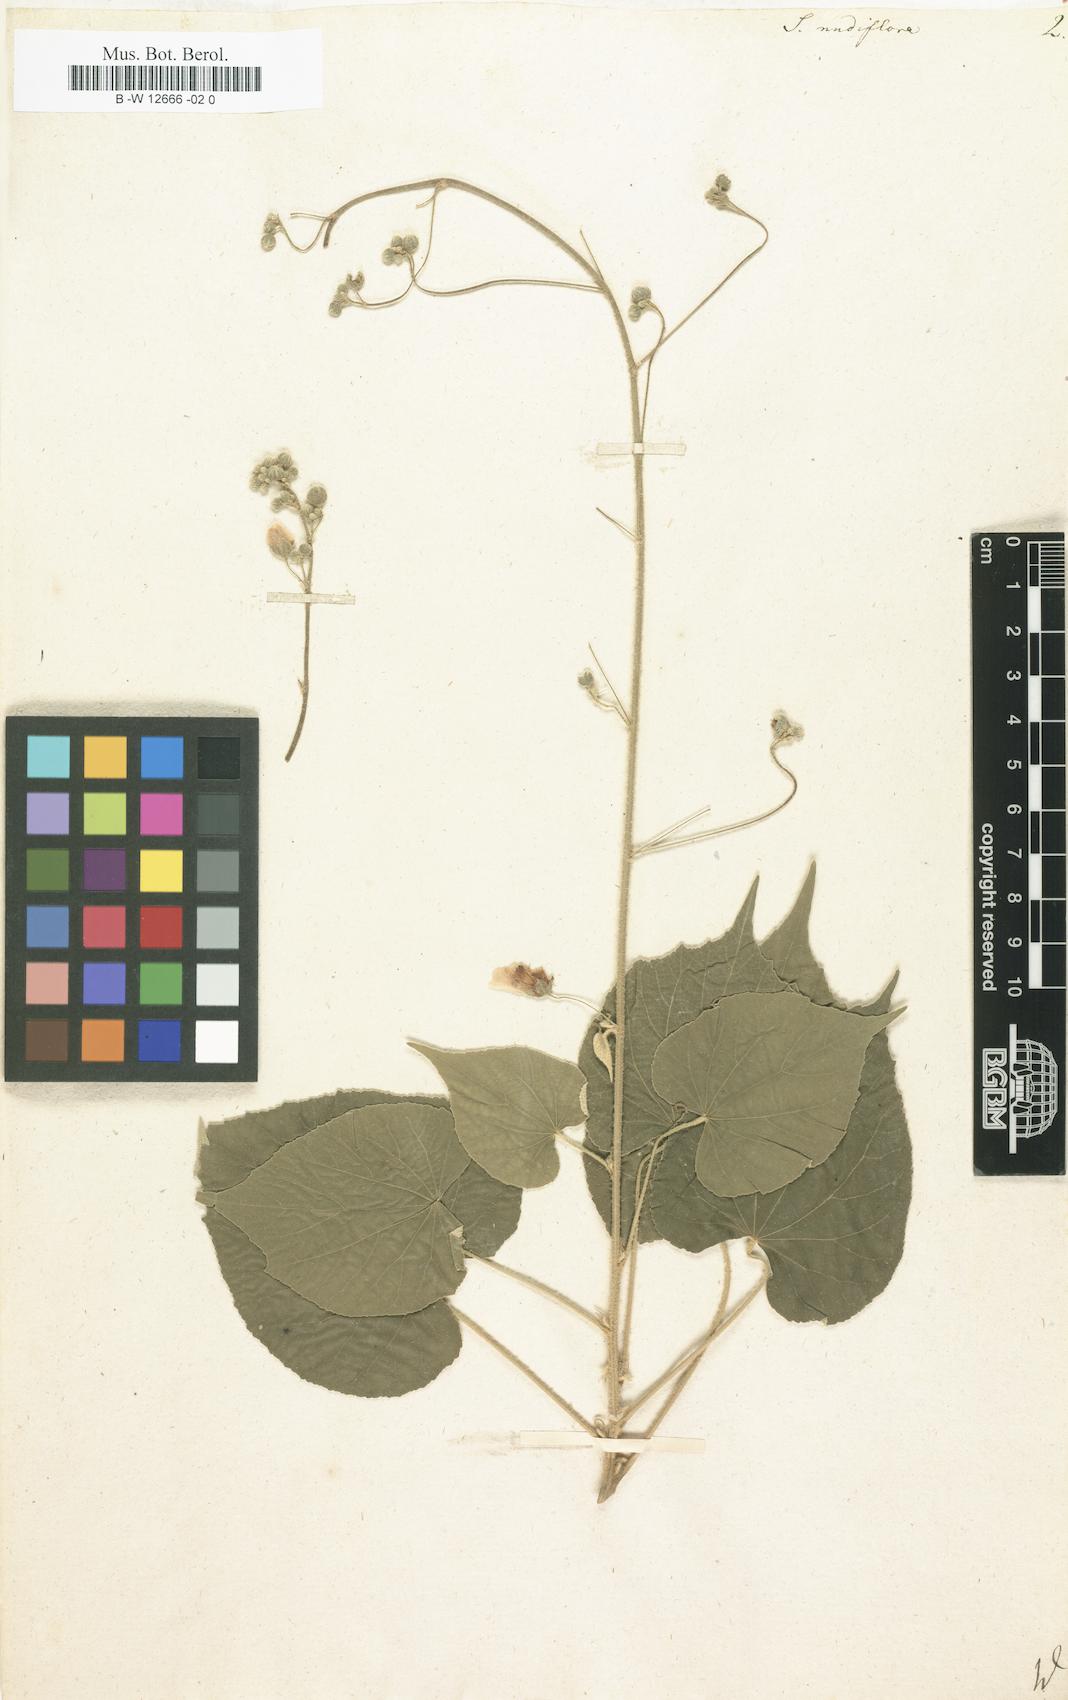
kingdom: Plantae
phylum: Tracheophyta
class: Magnoliopsida
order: Malvales
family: Malvaceae
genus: Wissadula
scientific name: Wissadula stellata
